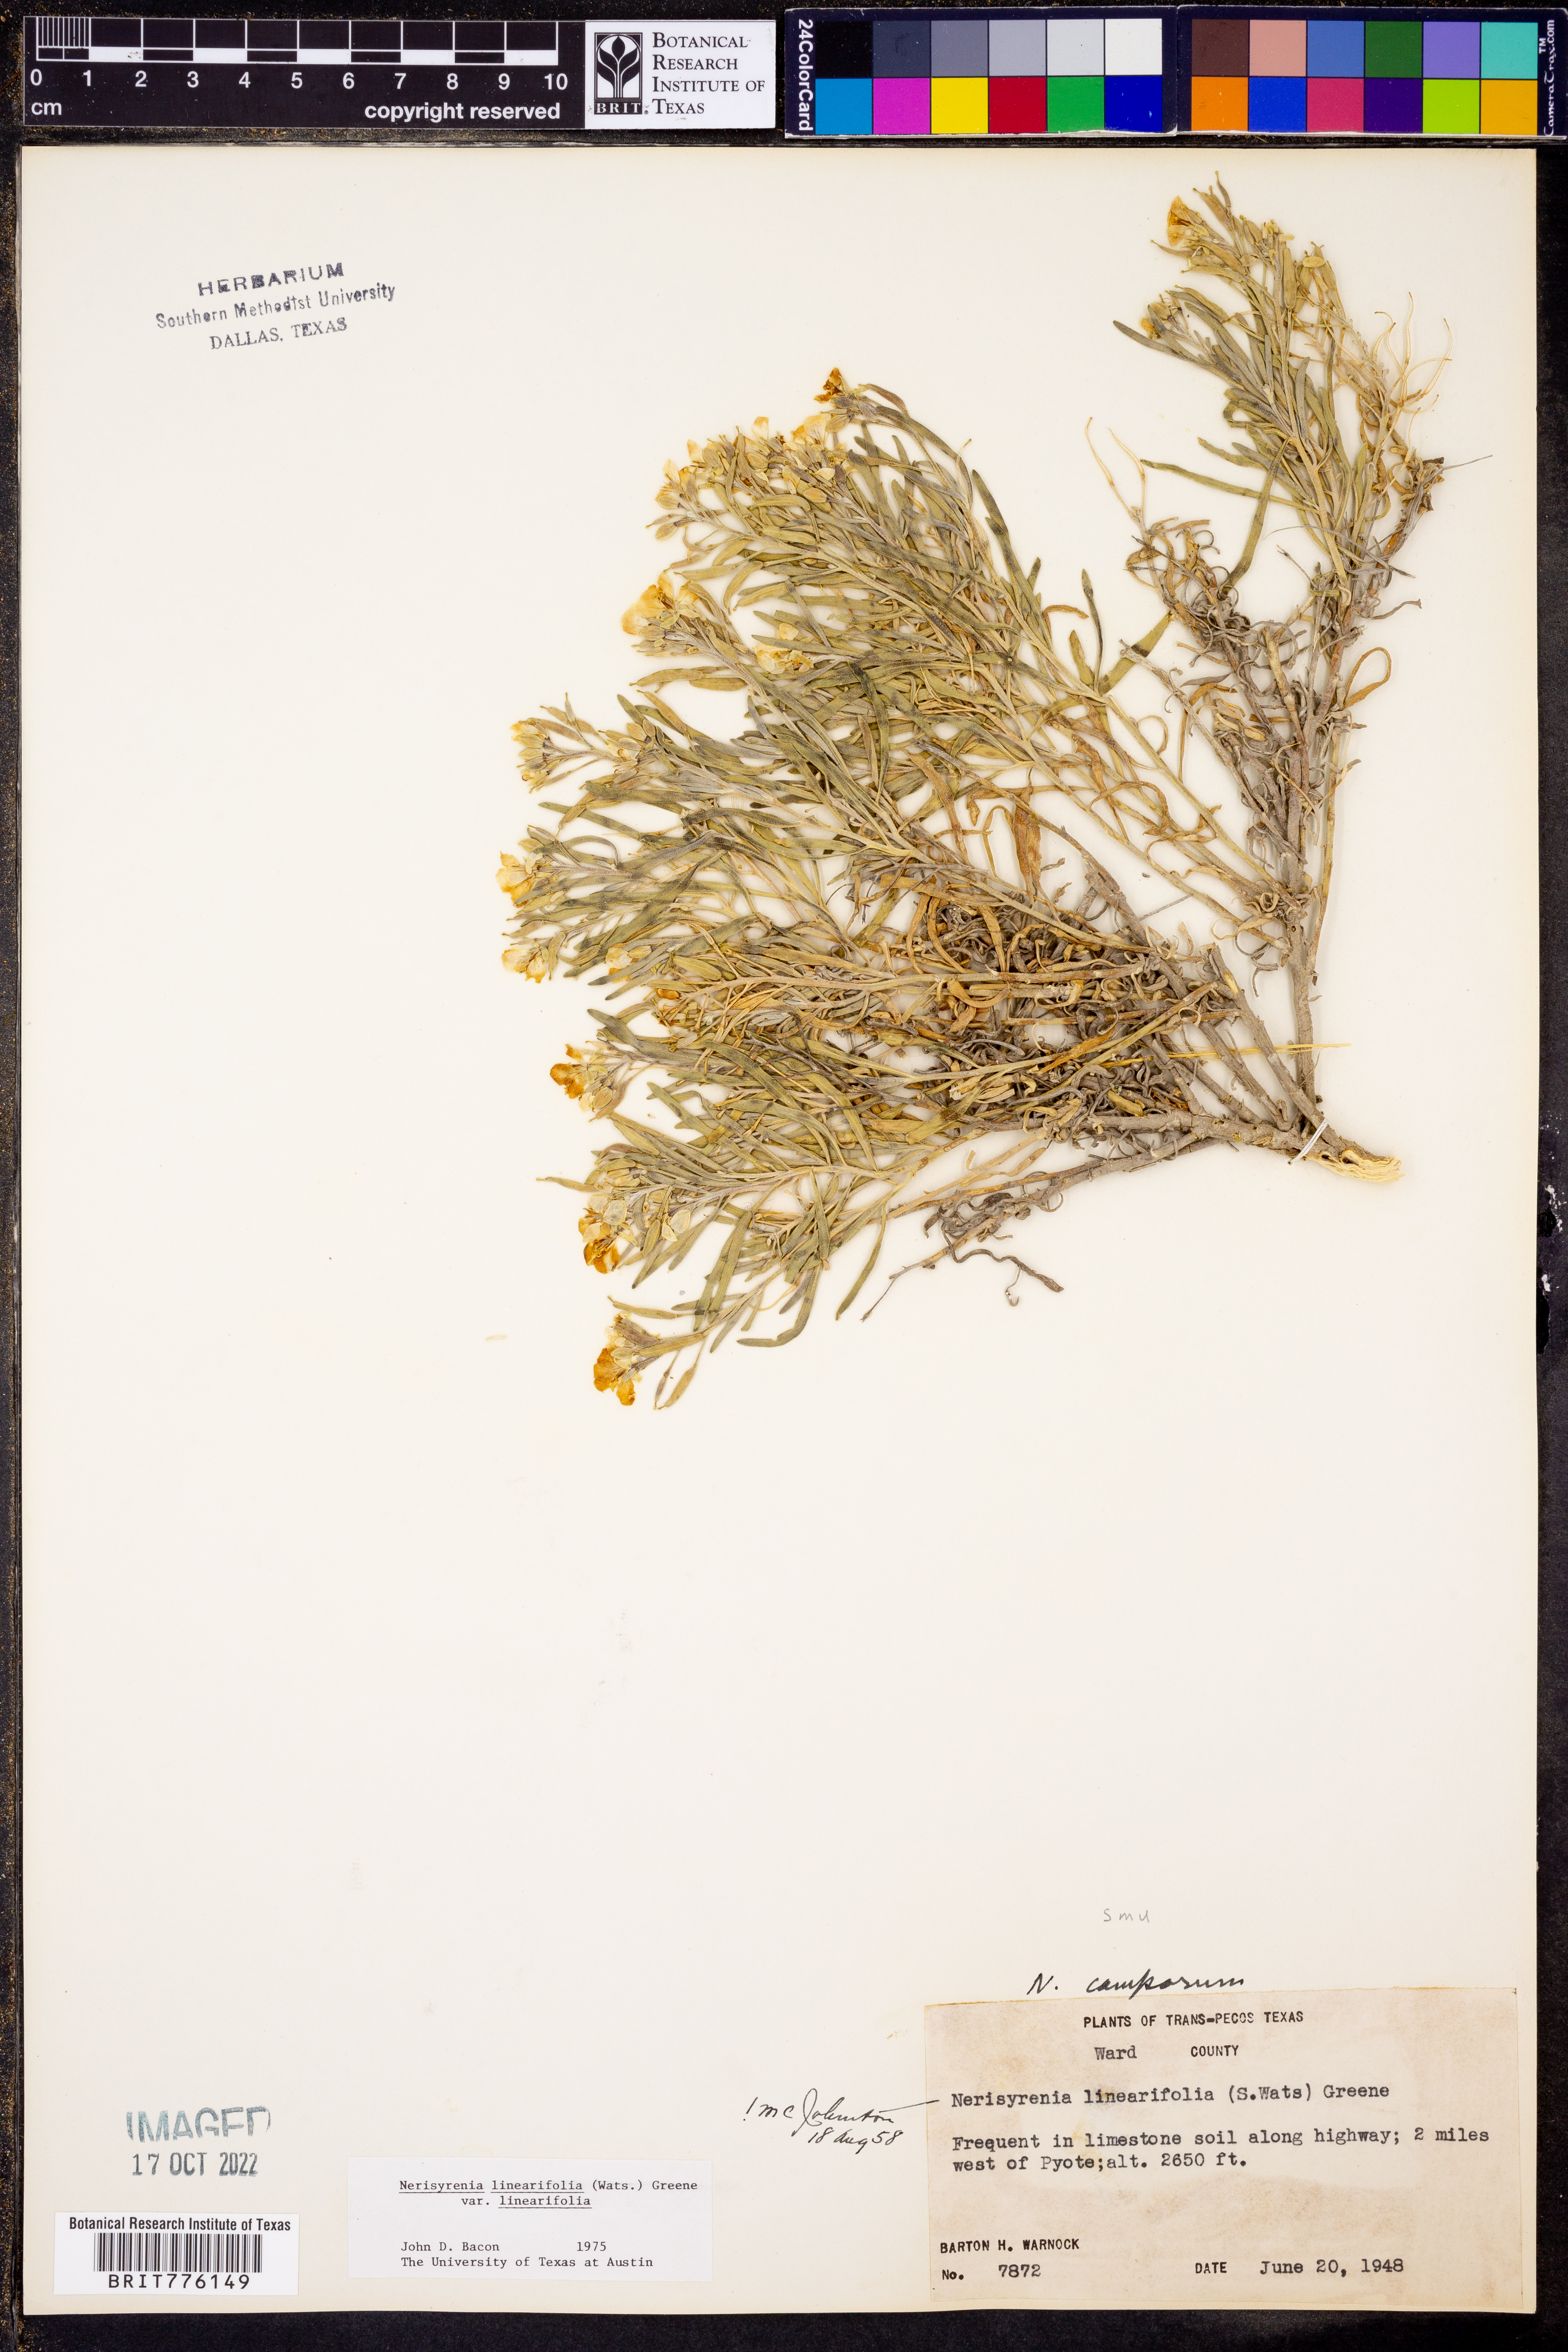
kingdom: Plantae
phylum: Tracheophyta
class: Magnoliopsida
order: Brassicales
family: Brassicaceae
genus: Nerisyrenia
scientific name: Nerisyrenia linearifolia
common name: White sands fan mustard
